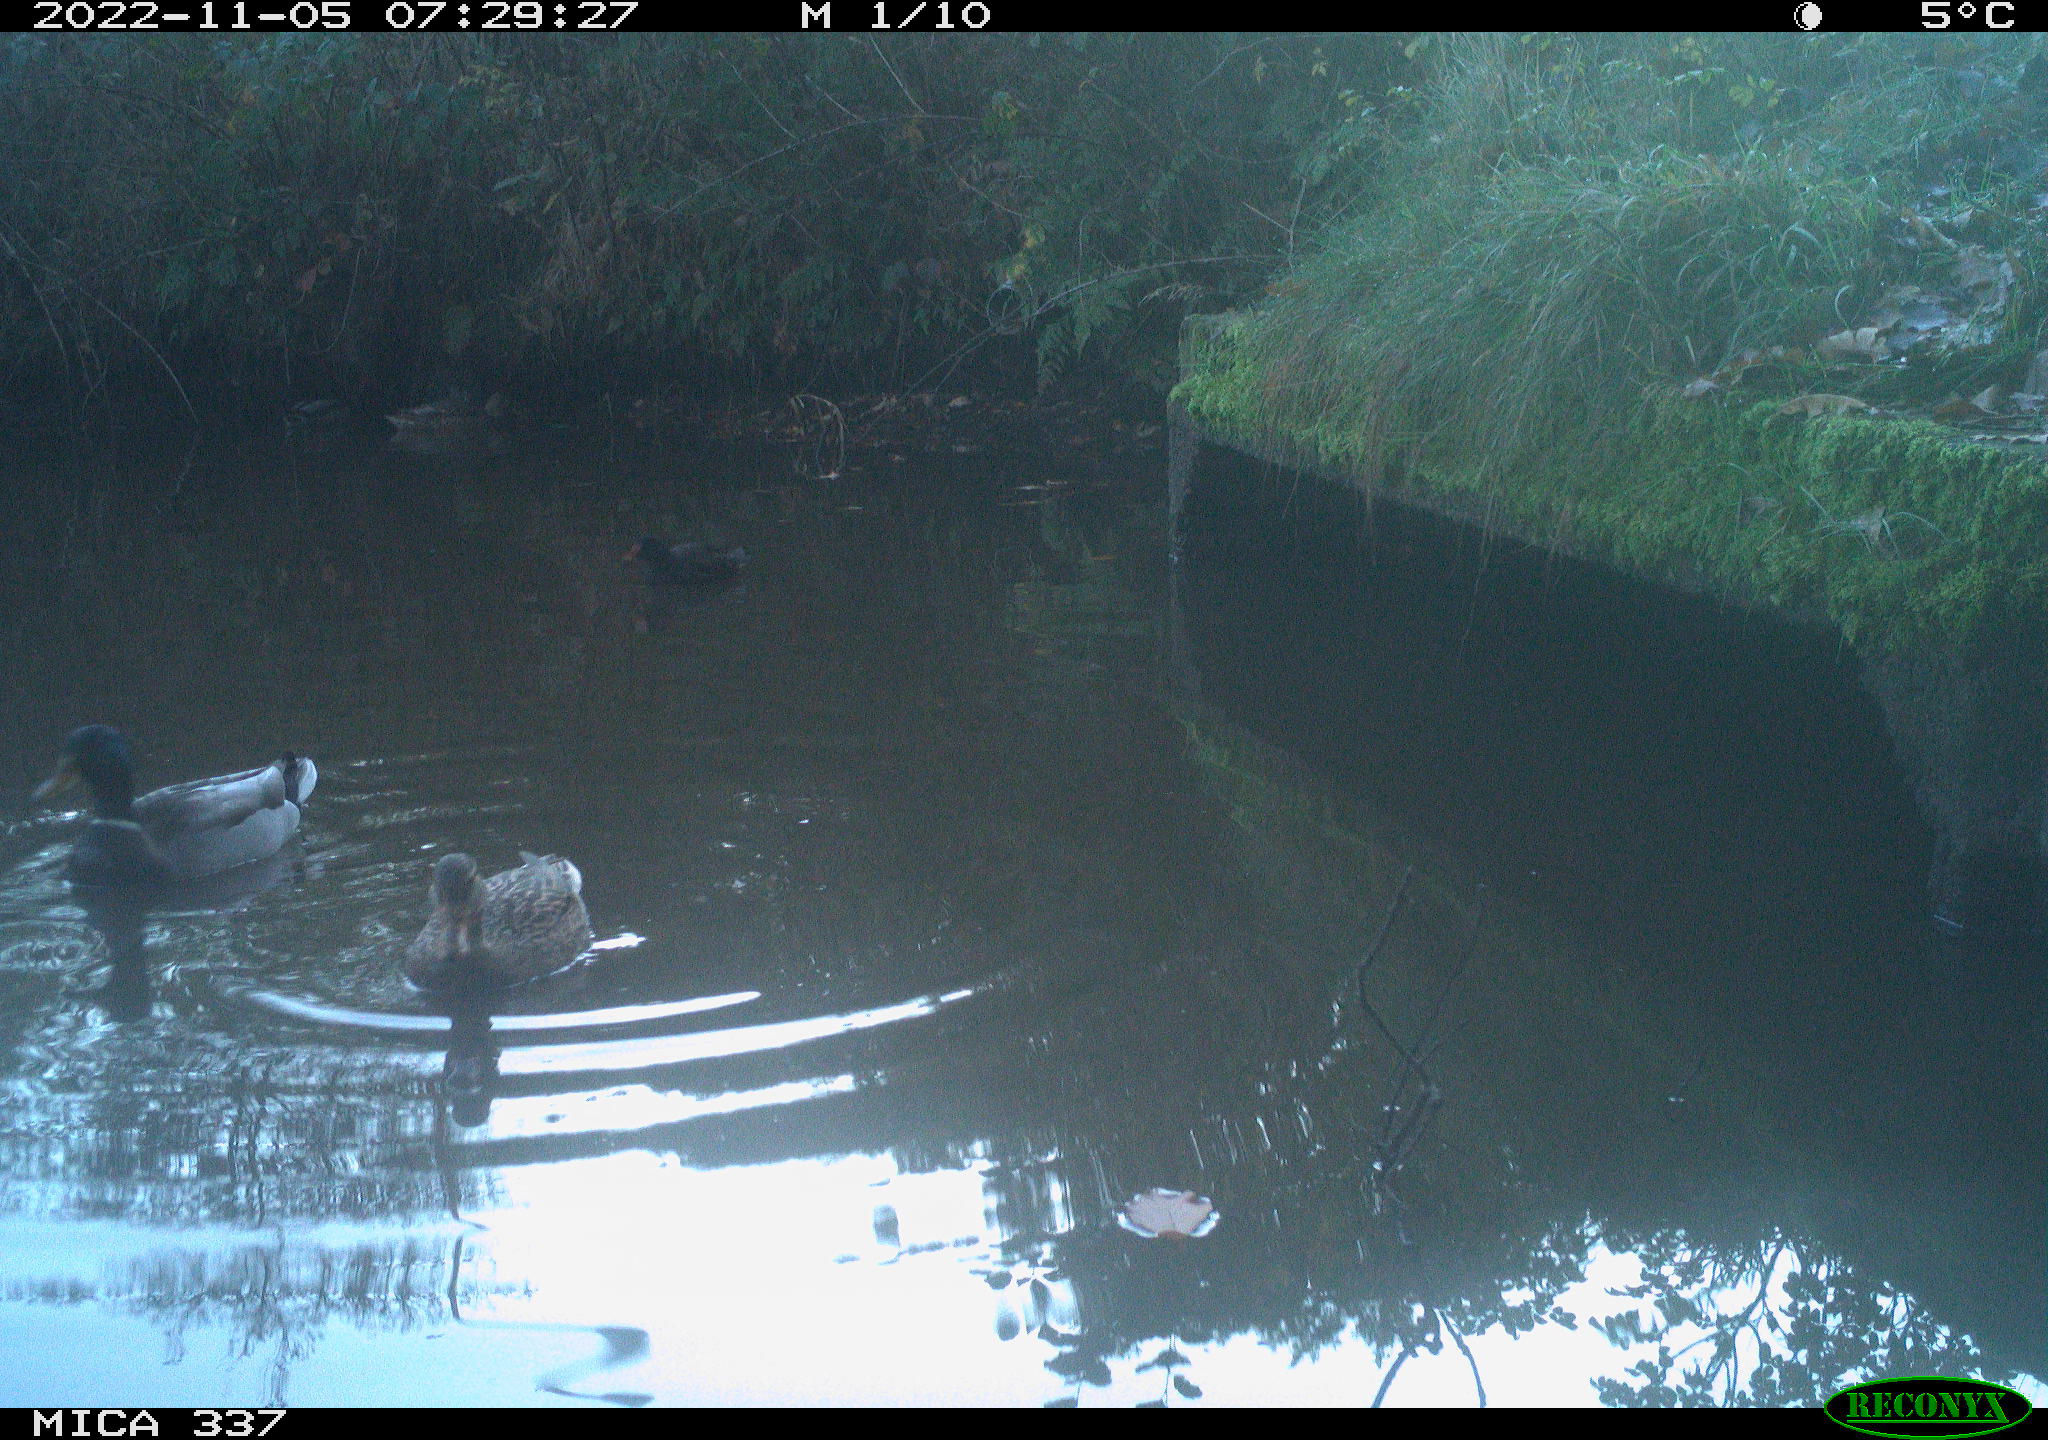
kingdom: Animalia
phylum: Chordata
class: Aves
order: Anseriformes
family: Anatidae
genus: Anas
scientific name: Anas platyrhynchos
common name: Mallard
